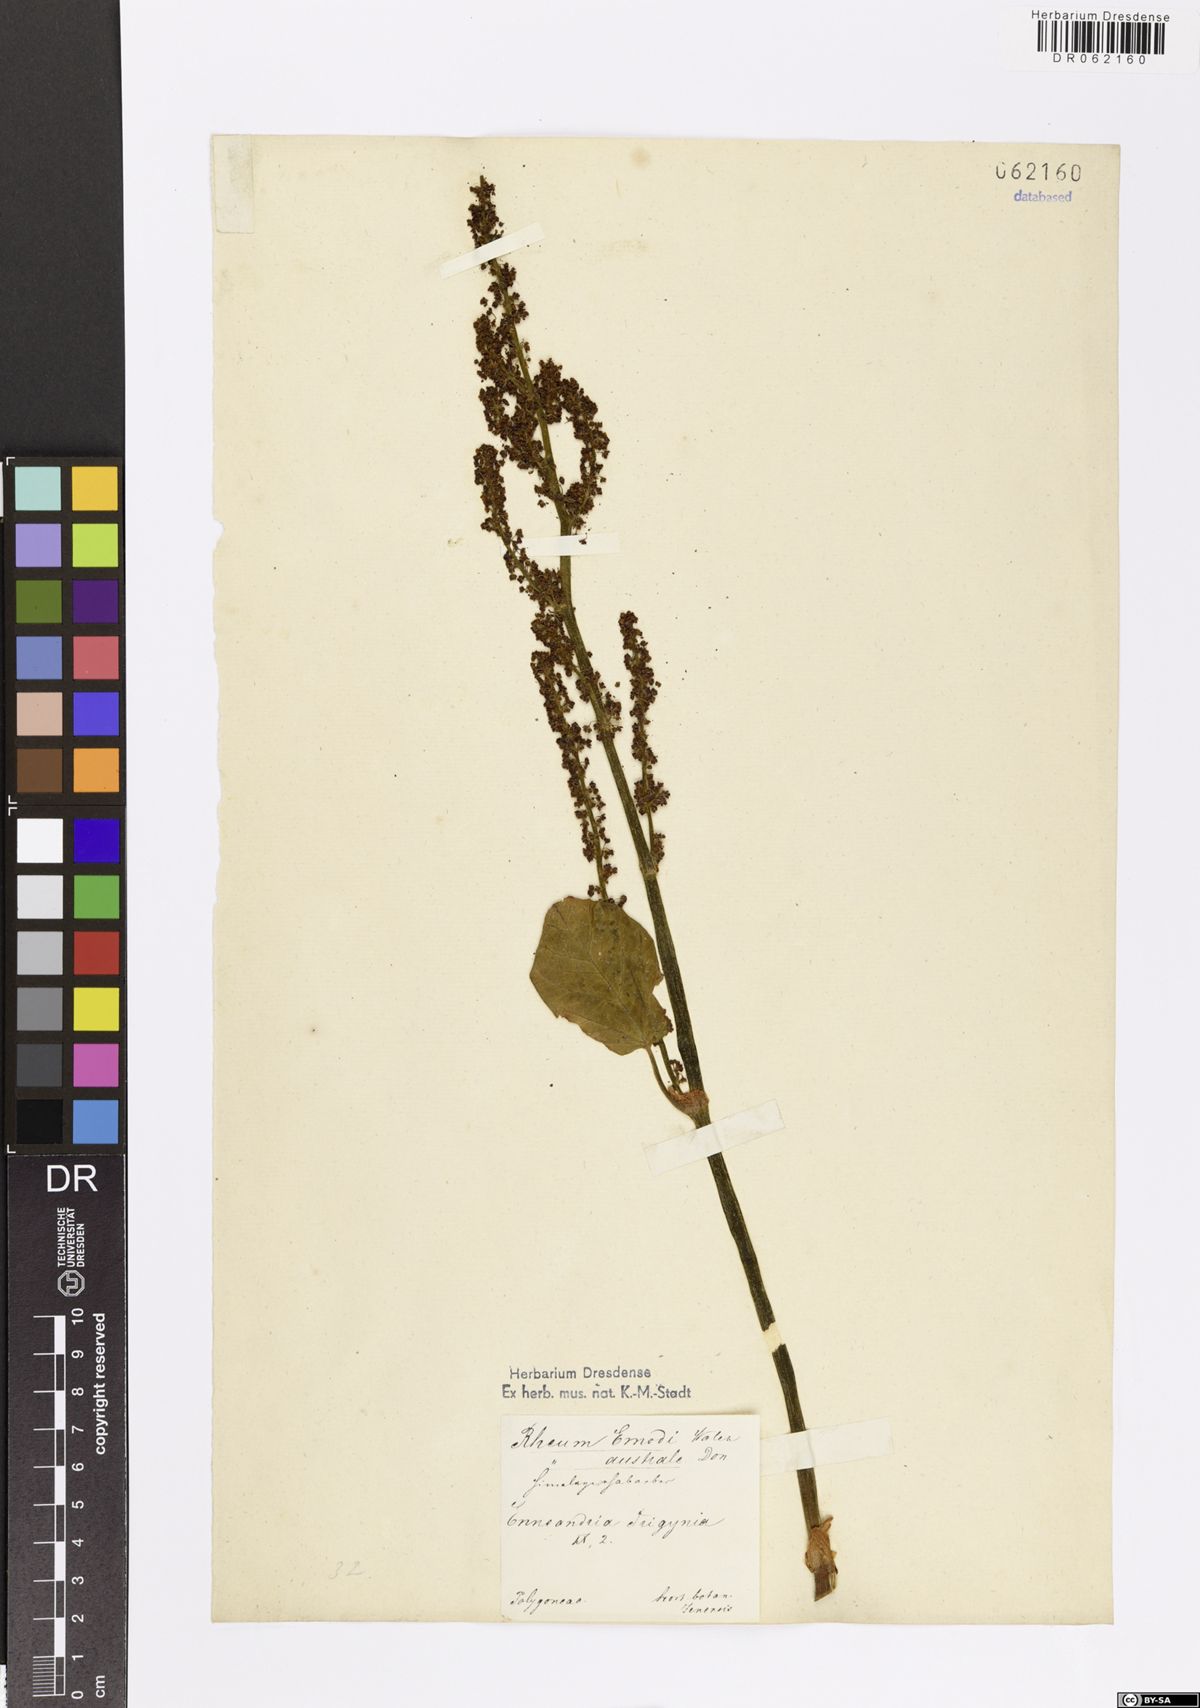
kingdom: Plantae
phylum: Tracheophyta
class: Magnoliopsida
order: Caryophyllales
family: Polygonaceae
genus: Rheum
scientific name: Rheum
